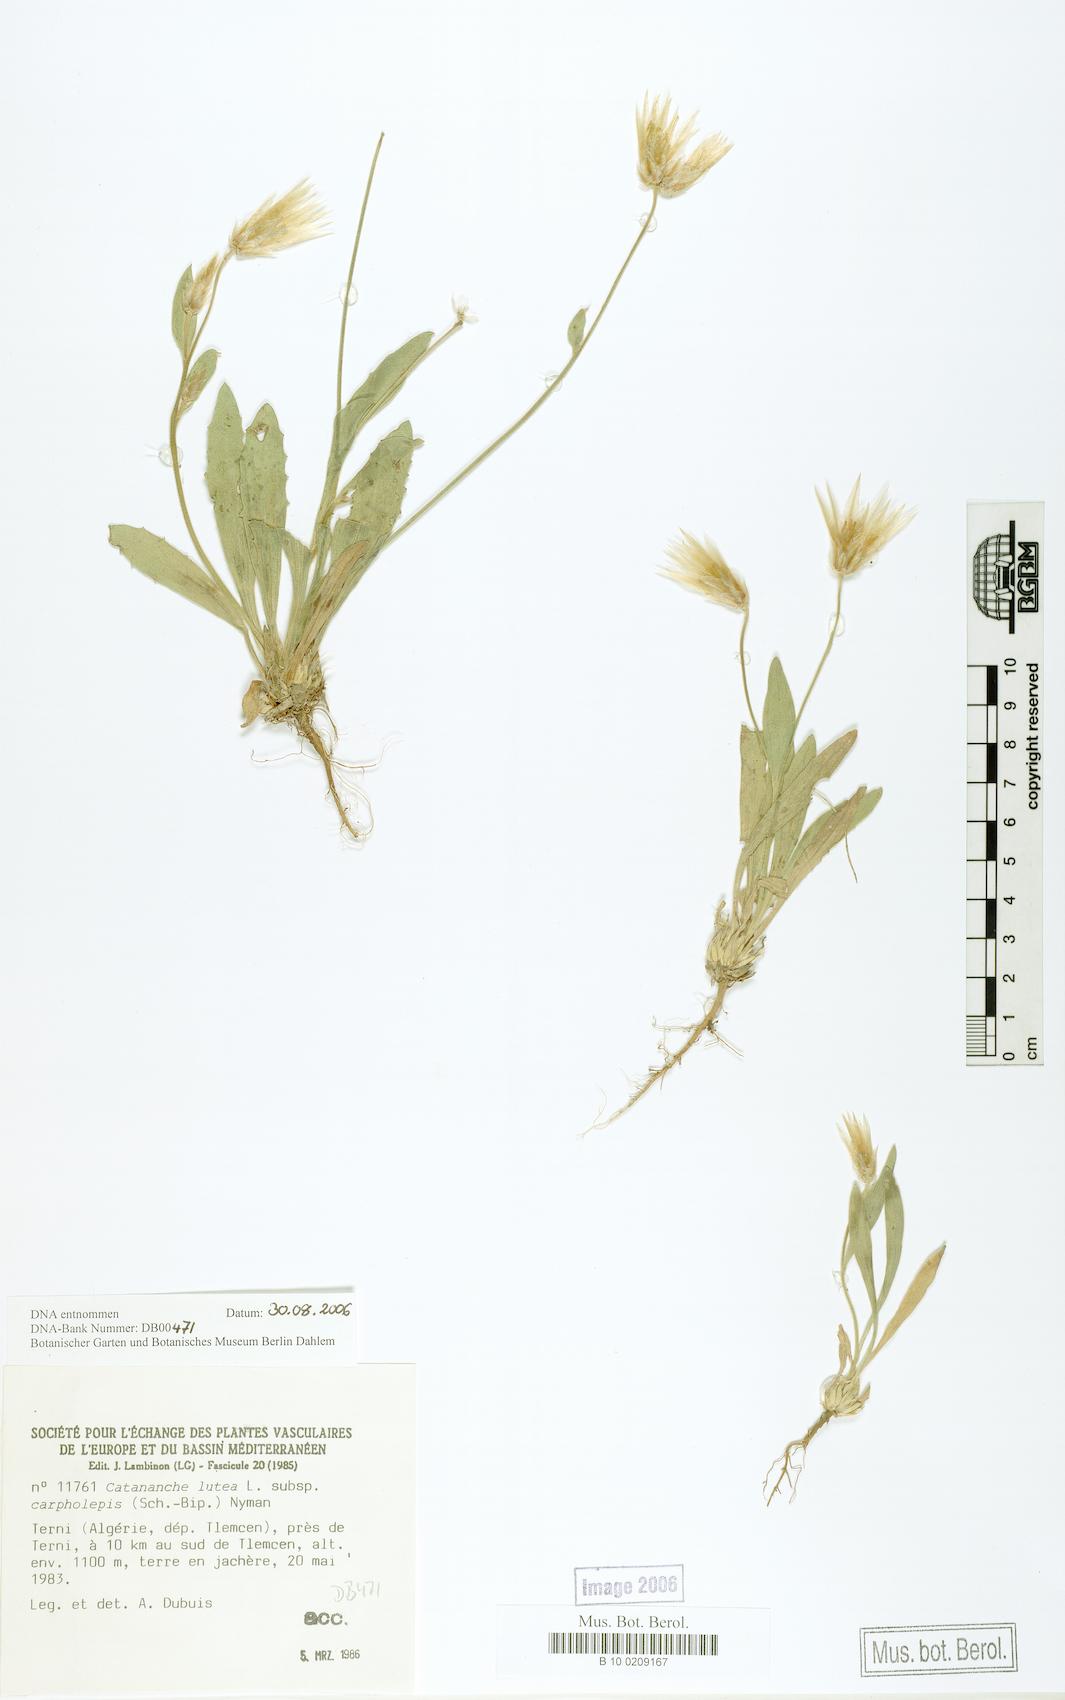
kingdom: Plantae
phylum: Tracheophyta
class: Magnoliopsida
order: Asterales
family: Asteraceae
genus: Catananche
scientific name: Catananche lutea
